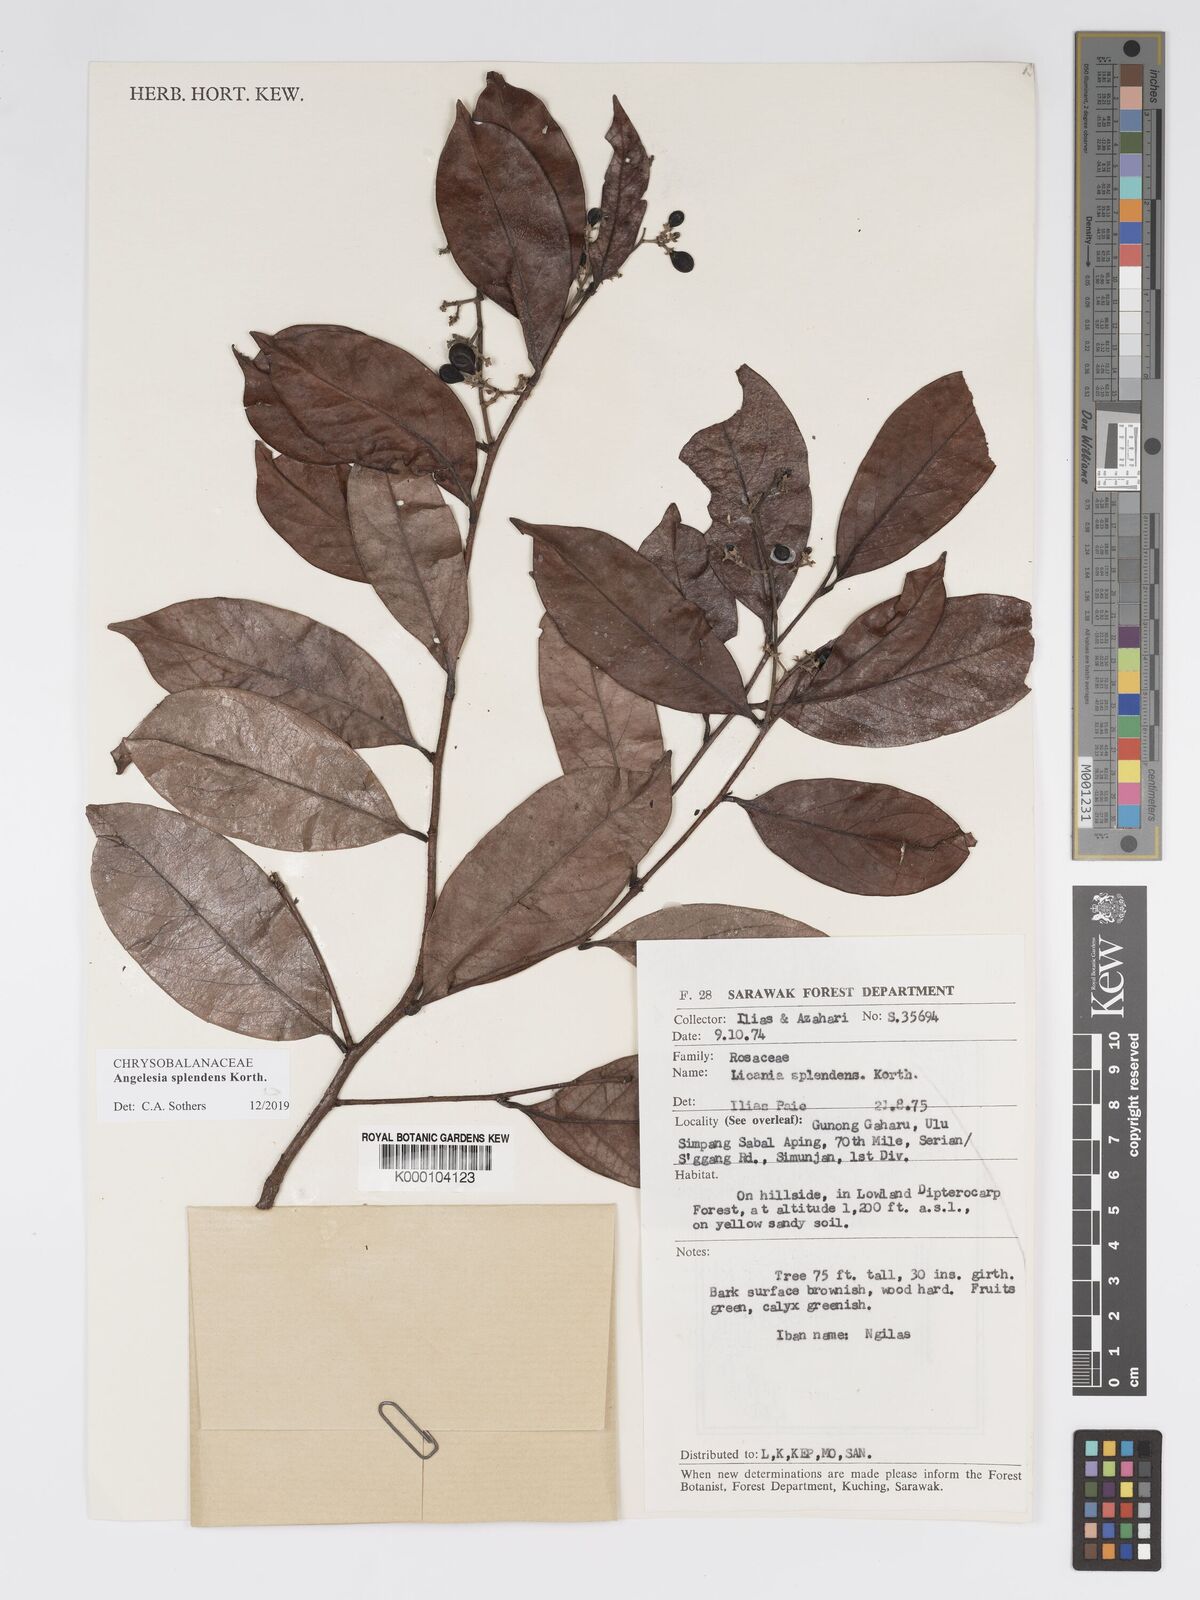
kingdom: Plantae
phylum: Tracheophyta
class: Magnoliopsida
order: Malpighiales
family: Chrysobalanaceae
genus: Angelesia
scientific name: Angelesia splendens
